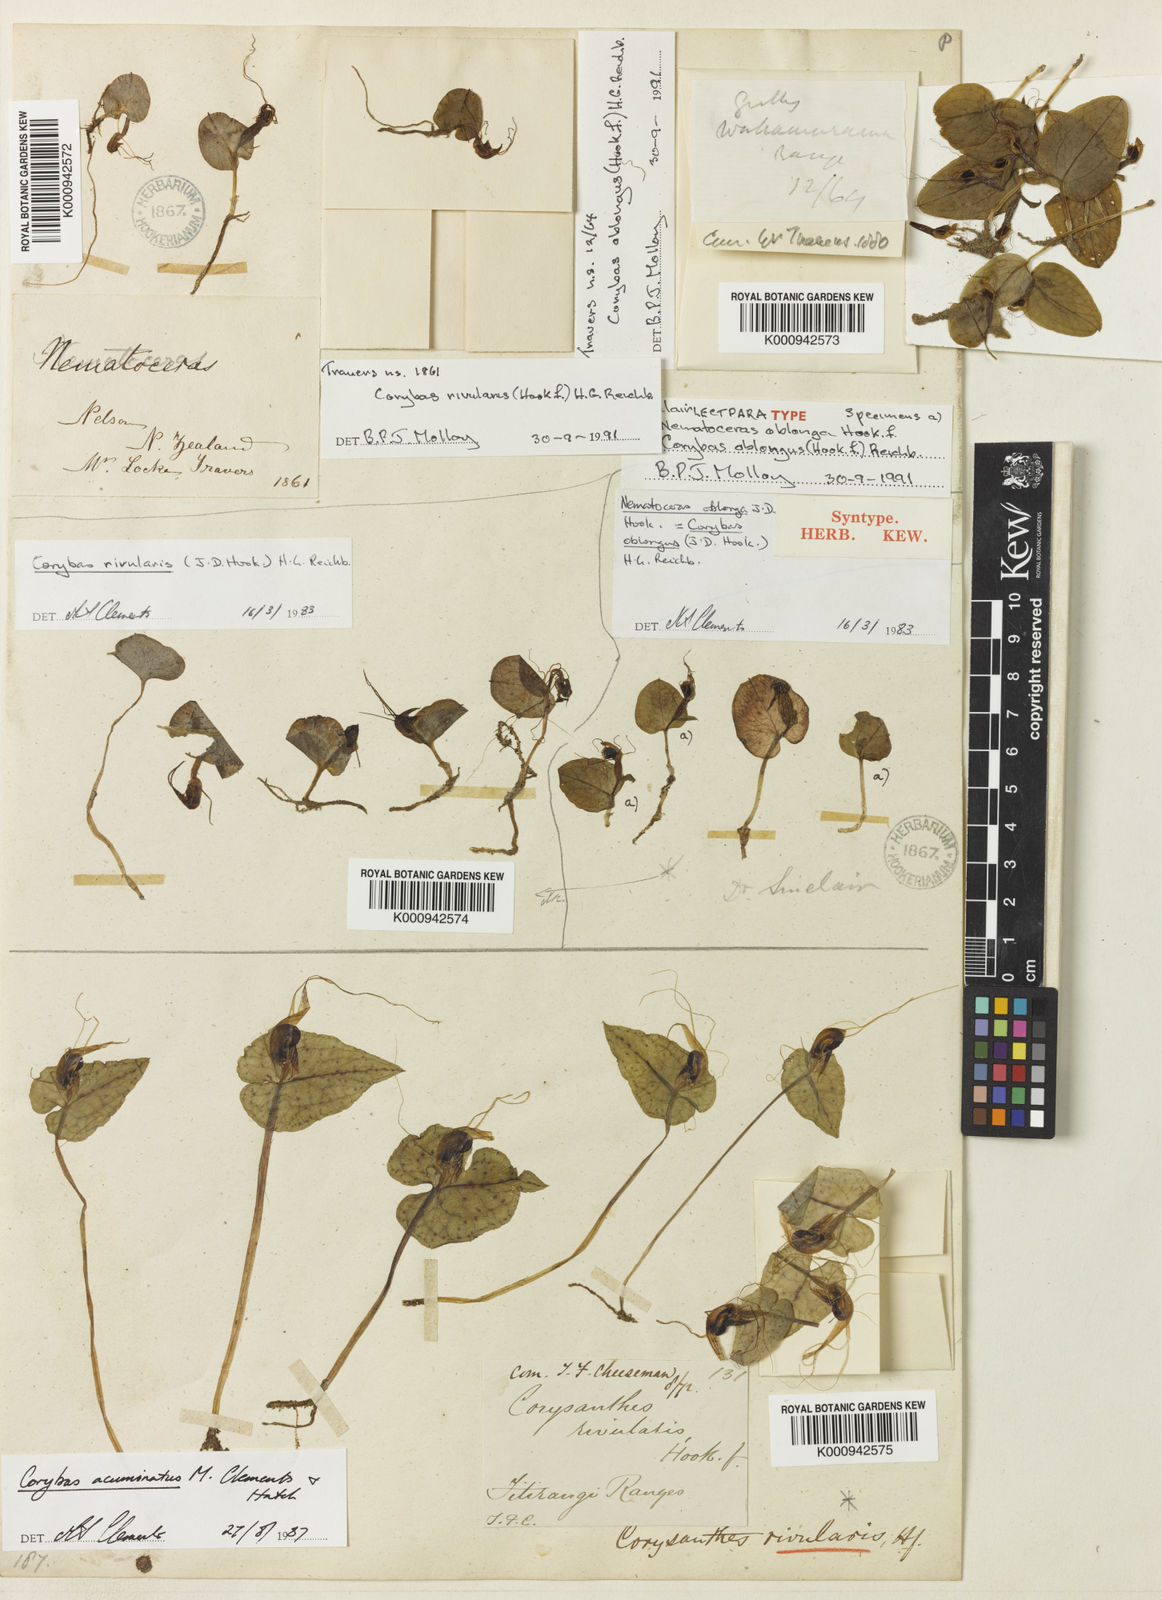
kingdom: Plantae
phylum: Tracheophyta
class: Liliopsida
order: Asparagales
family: Orchidaceae
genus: Corybas
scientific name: Corybas rivularis
